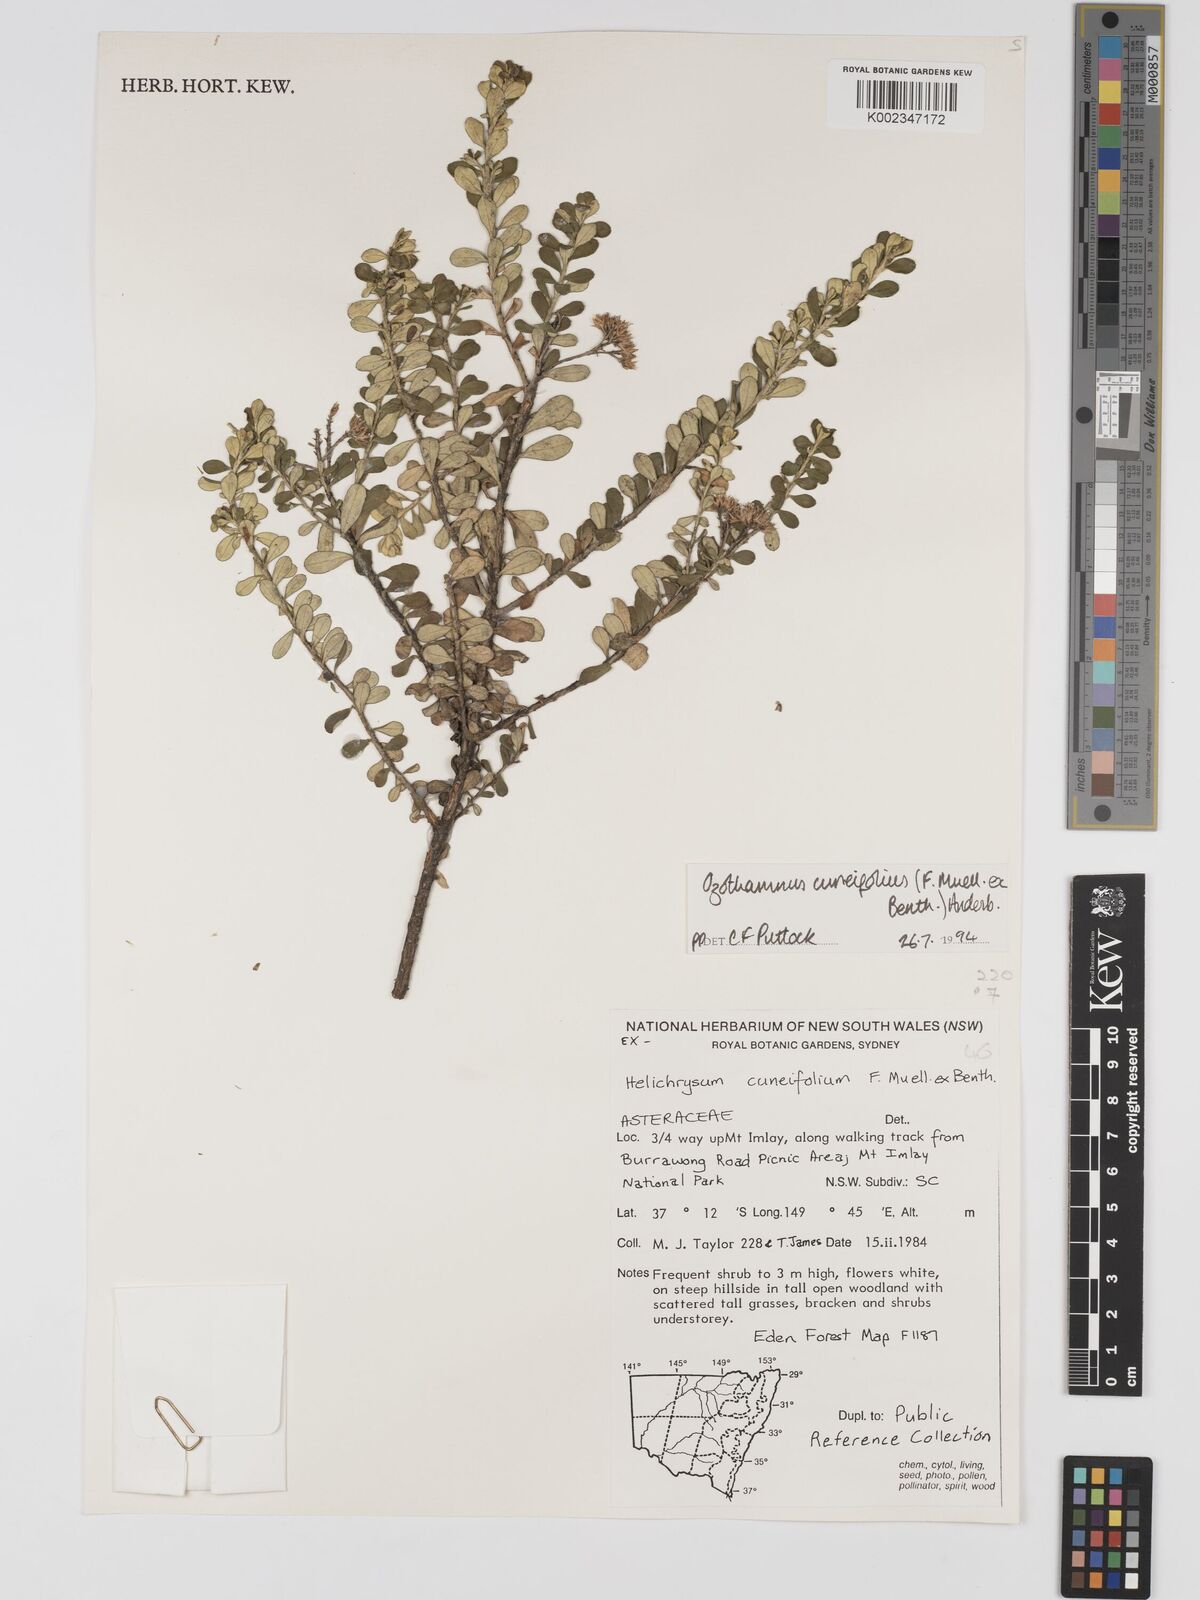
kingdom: Plantae
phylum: Tracheophyta
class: Magnoliopsida
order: Asterales
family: Asteraceae
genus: Ozothamnus
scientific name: Ozothamnus cuneifolius
